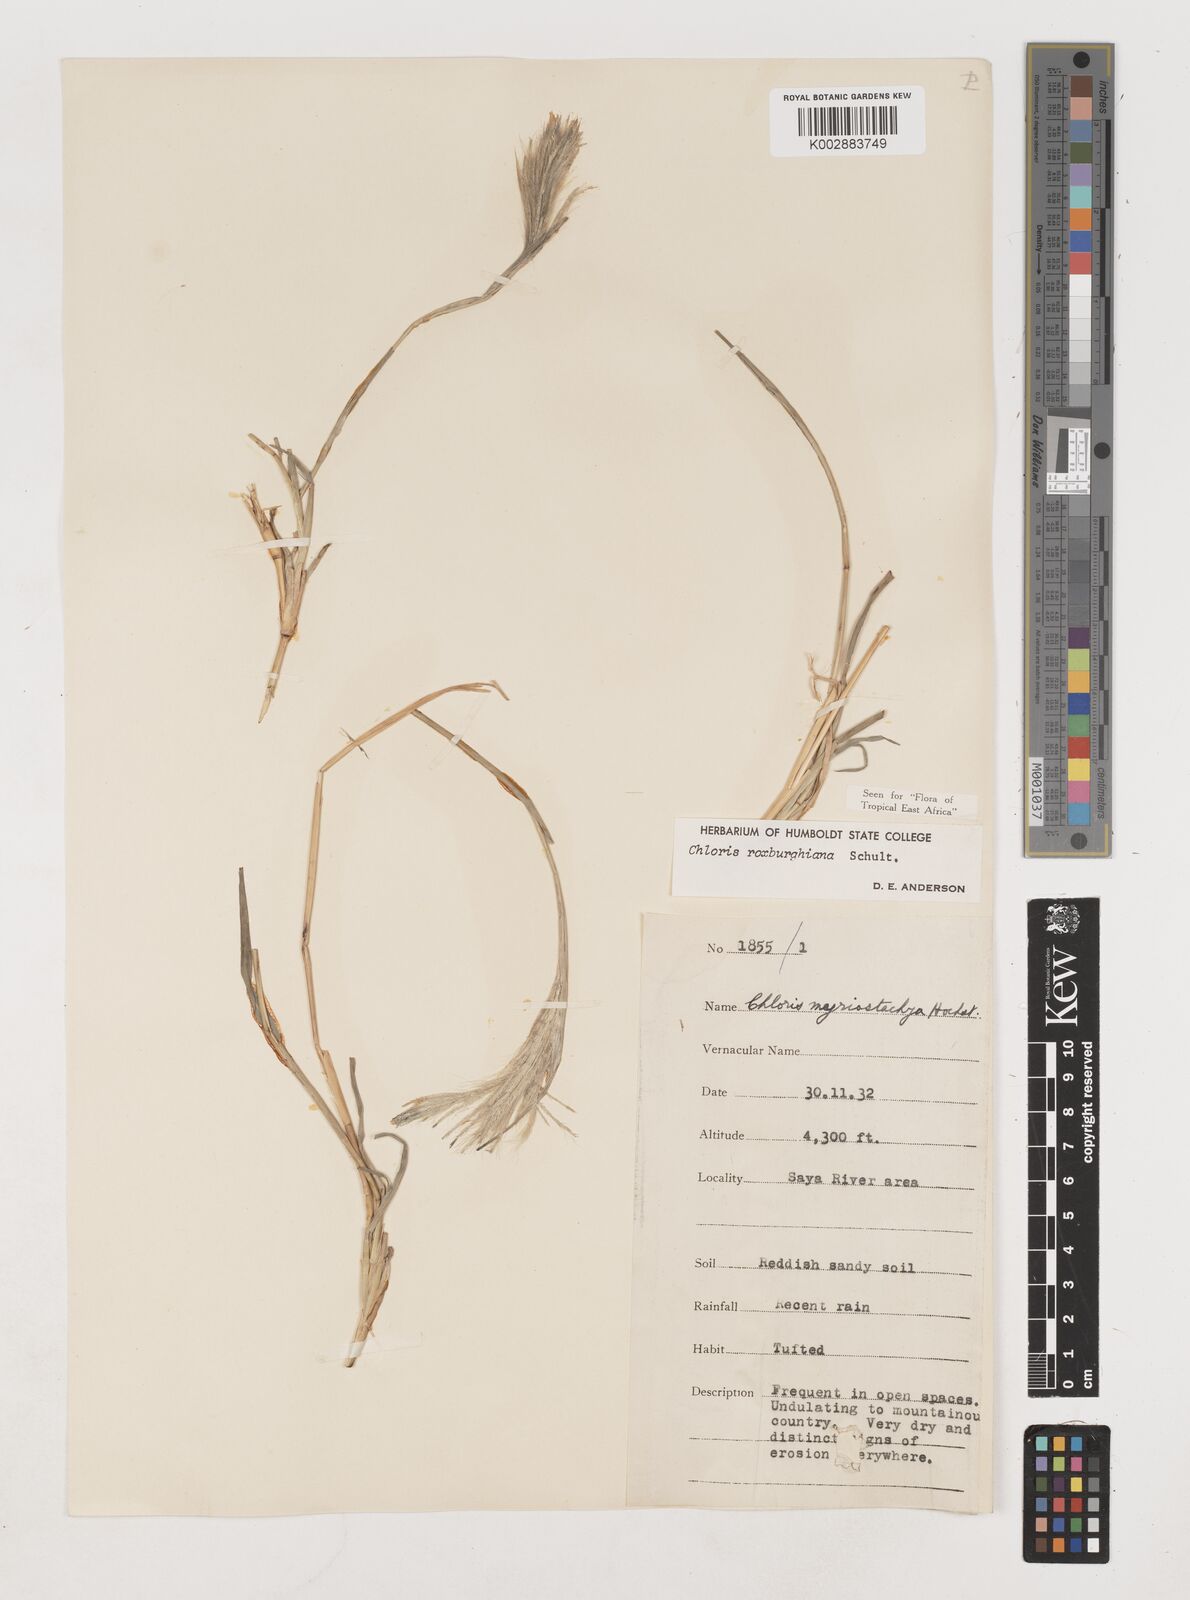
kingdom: Plantae
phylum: Tracheophyta
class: Liliopsida
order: Poales
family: Poaceae
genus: Tetrapogon
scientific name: Tetrapogon roxburghiana
